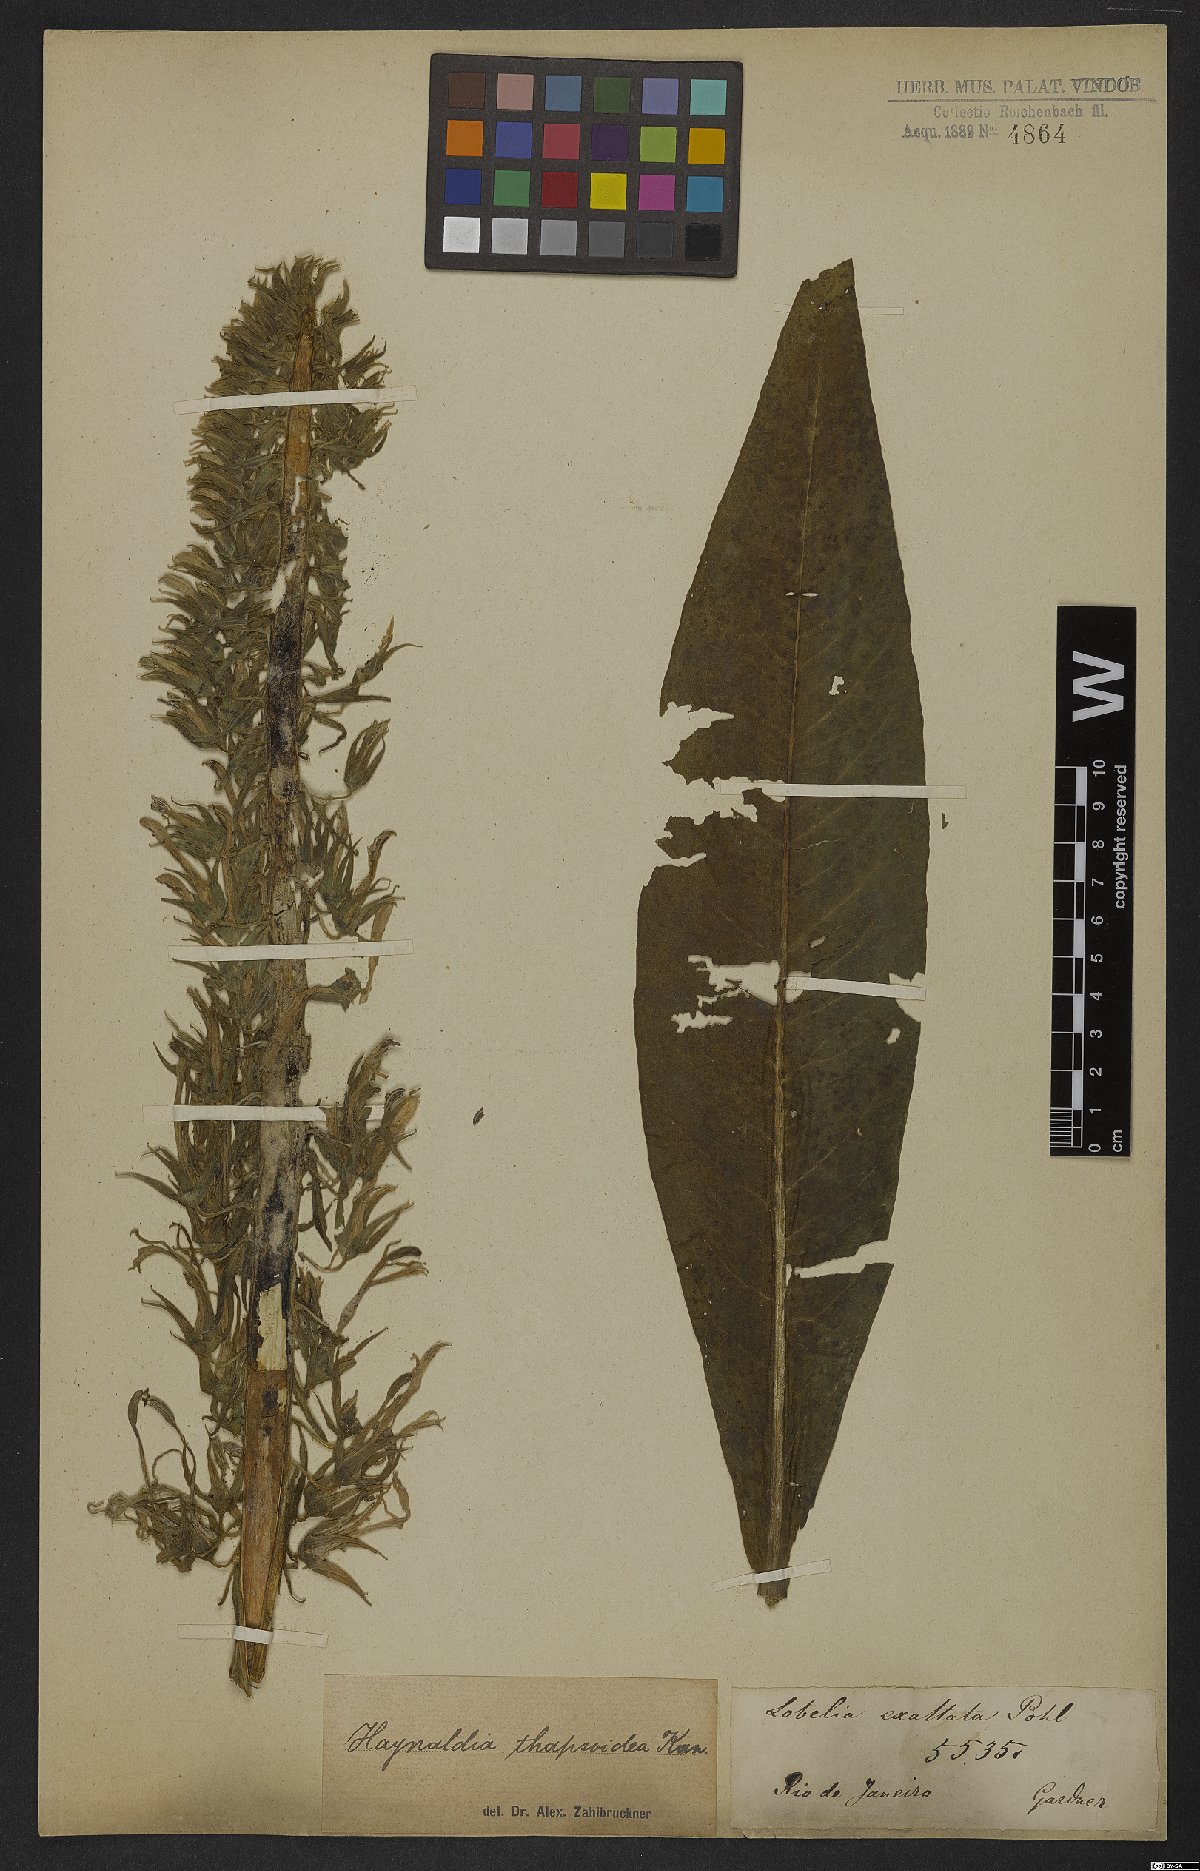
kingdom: Plantae
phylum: Tracheophyta
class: Magnoliopsida
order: Asterales
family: Campanulaceae
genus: Lobelia
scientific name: Lobelia thapsoidea
